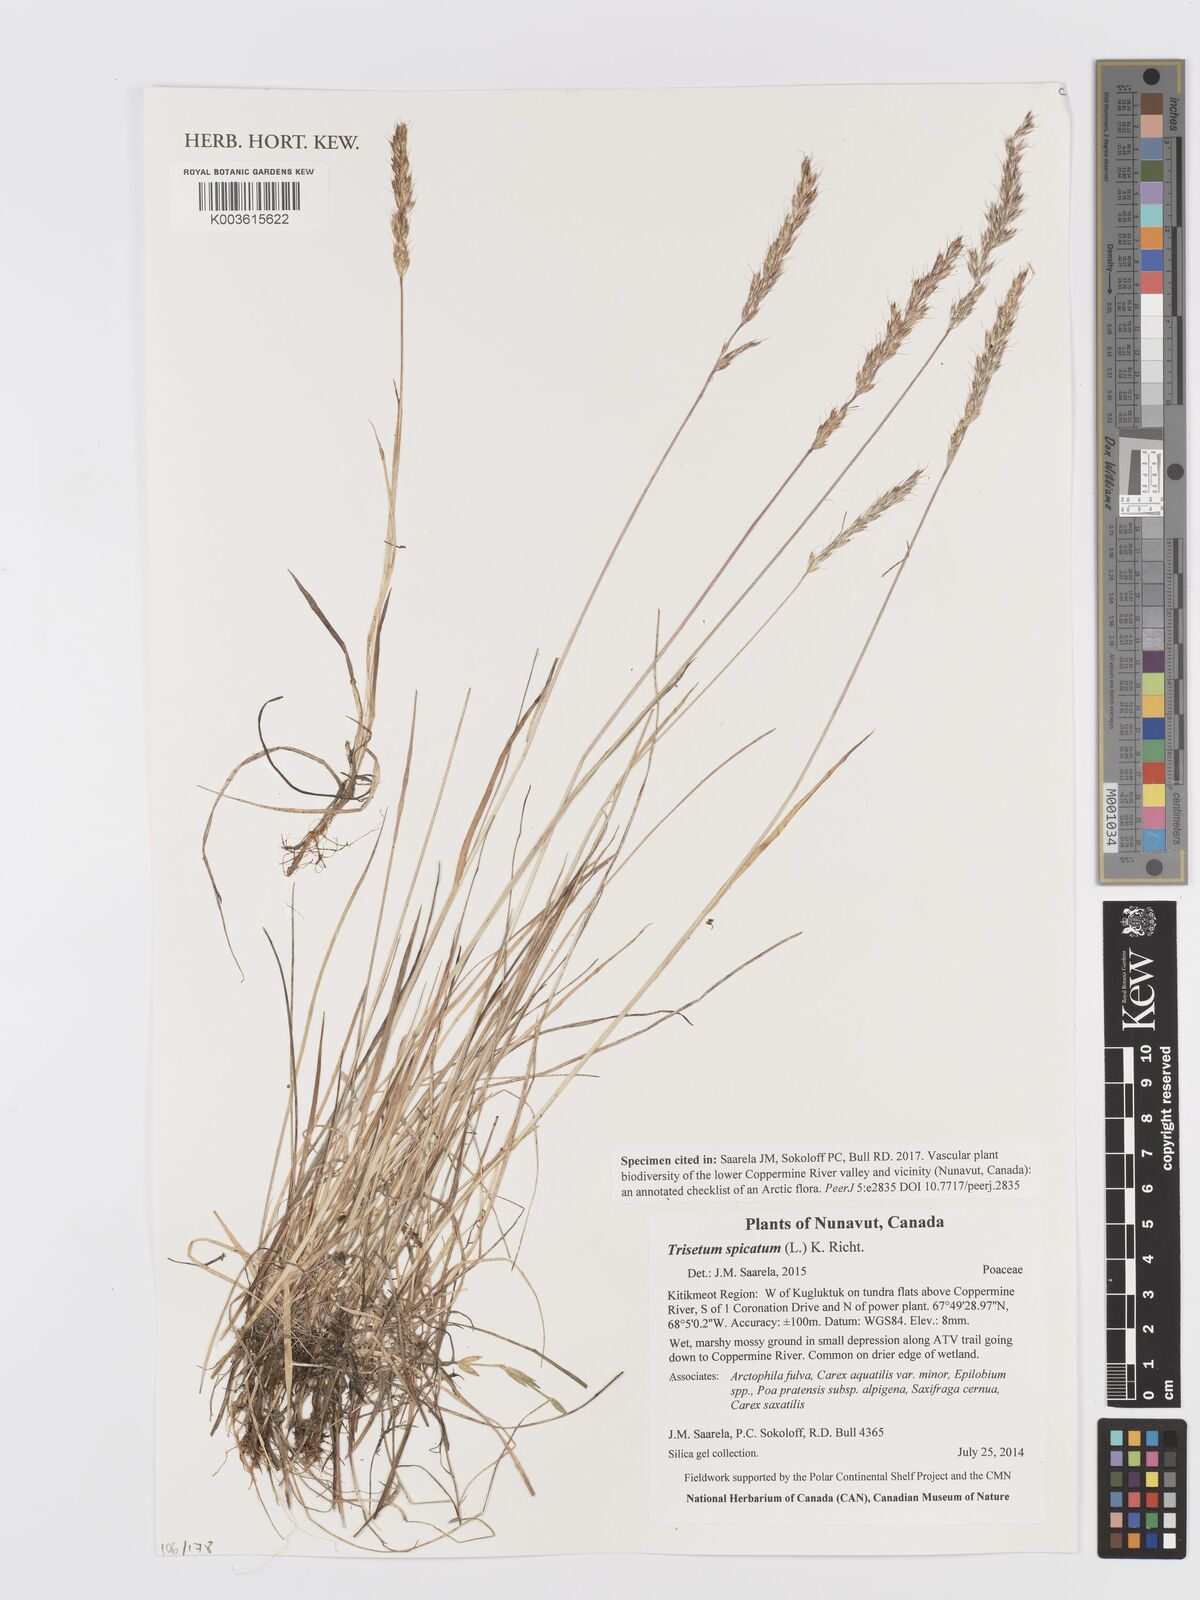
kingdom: Plantae
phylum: Tracheophyta
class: Liliopsida
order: Poales
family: Poaceae
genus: Koeleria
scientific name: Koeleria spicata
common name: Mountain trisetum
